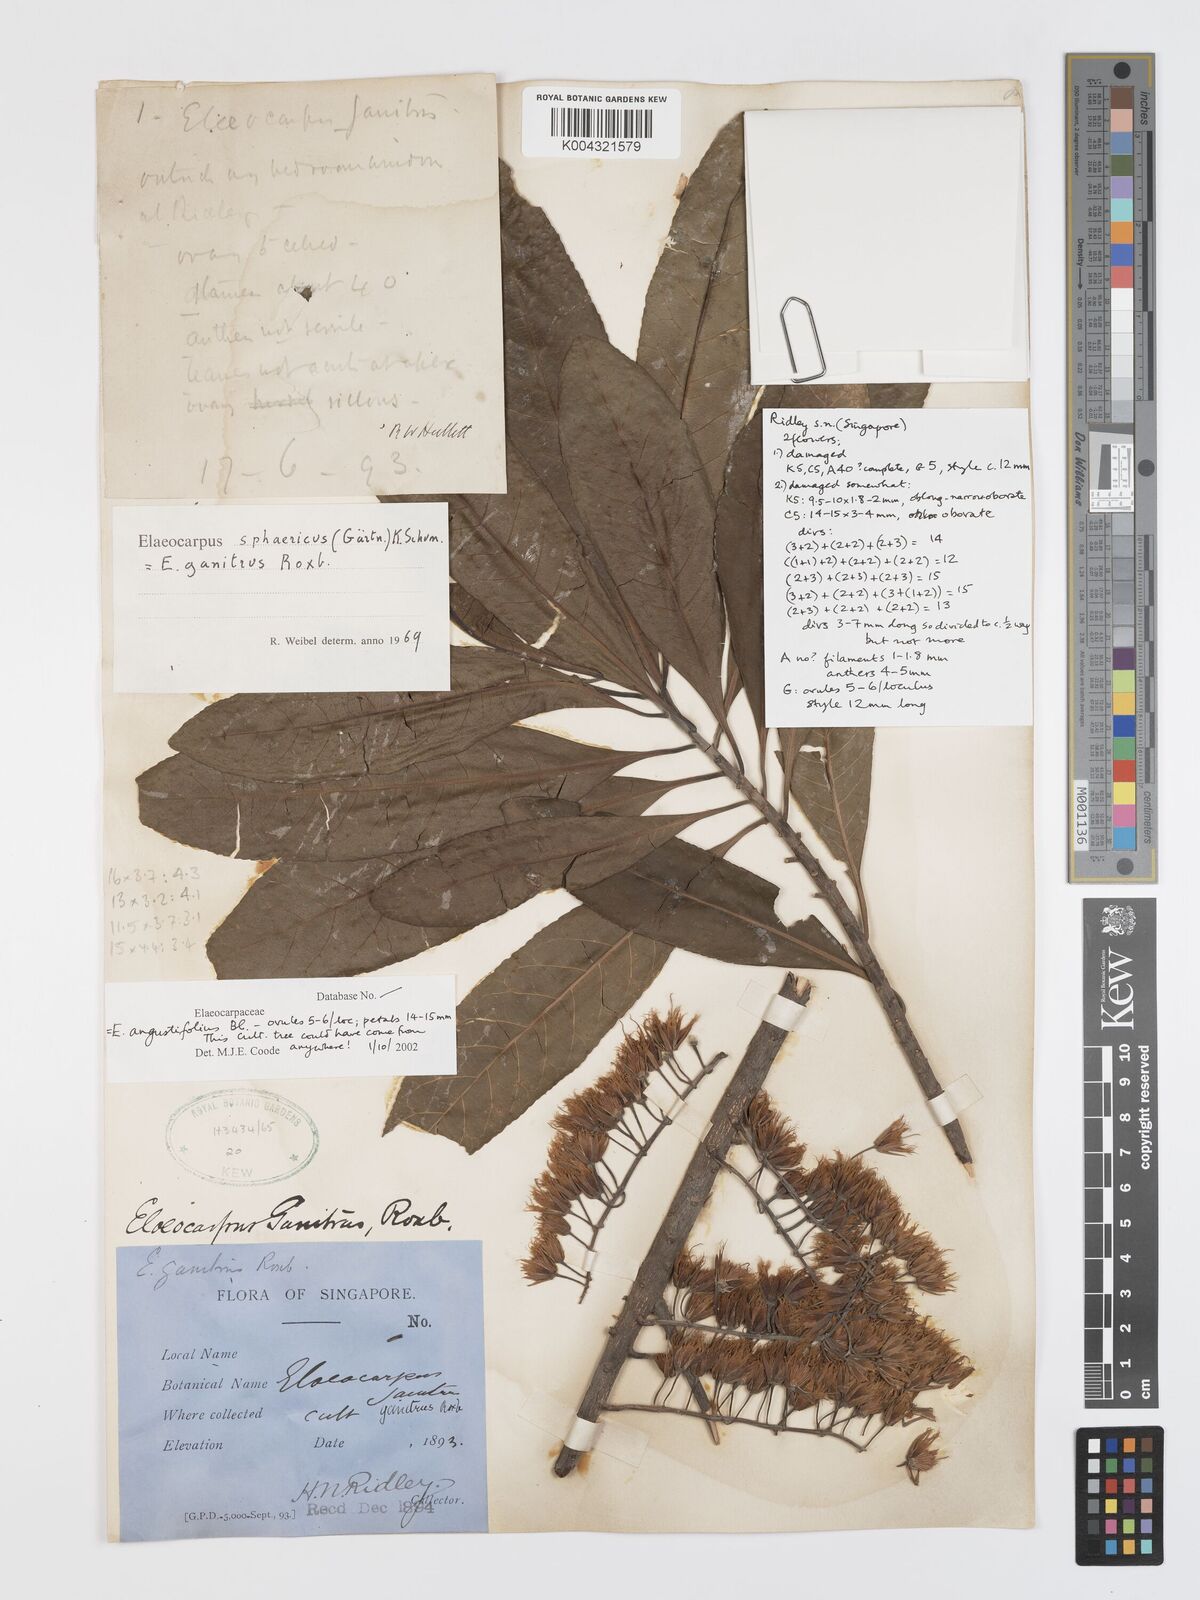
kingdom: Plantae
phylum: Tracheophyta
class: Magnoliopsida
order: Oxalidales
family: Elaeocarpaceae
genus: Elaeocarpus
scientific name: Elaeocarpus sphaericus
